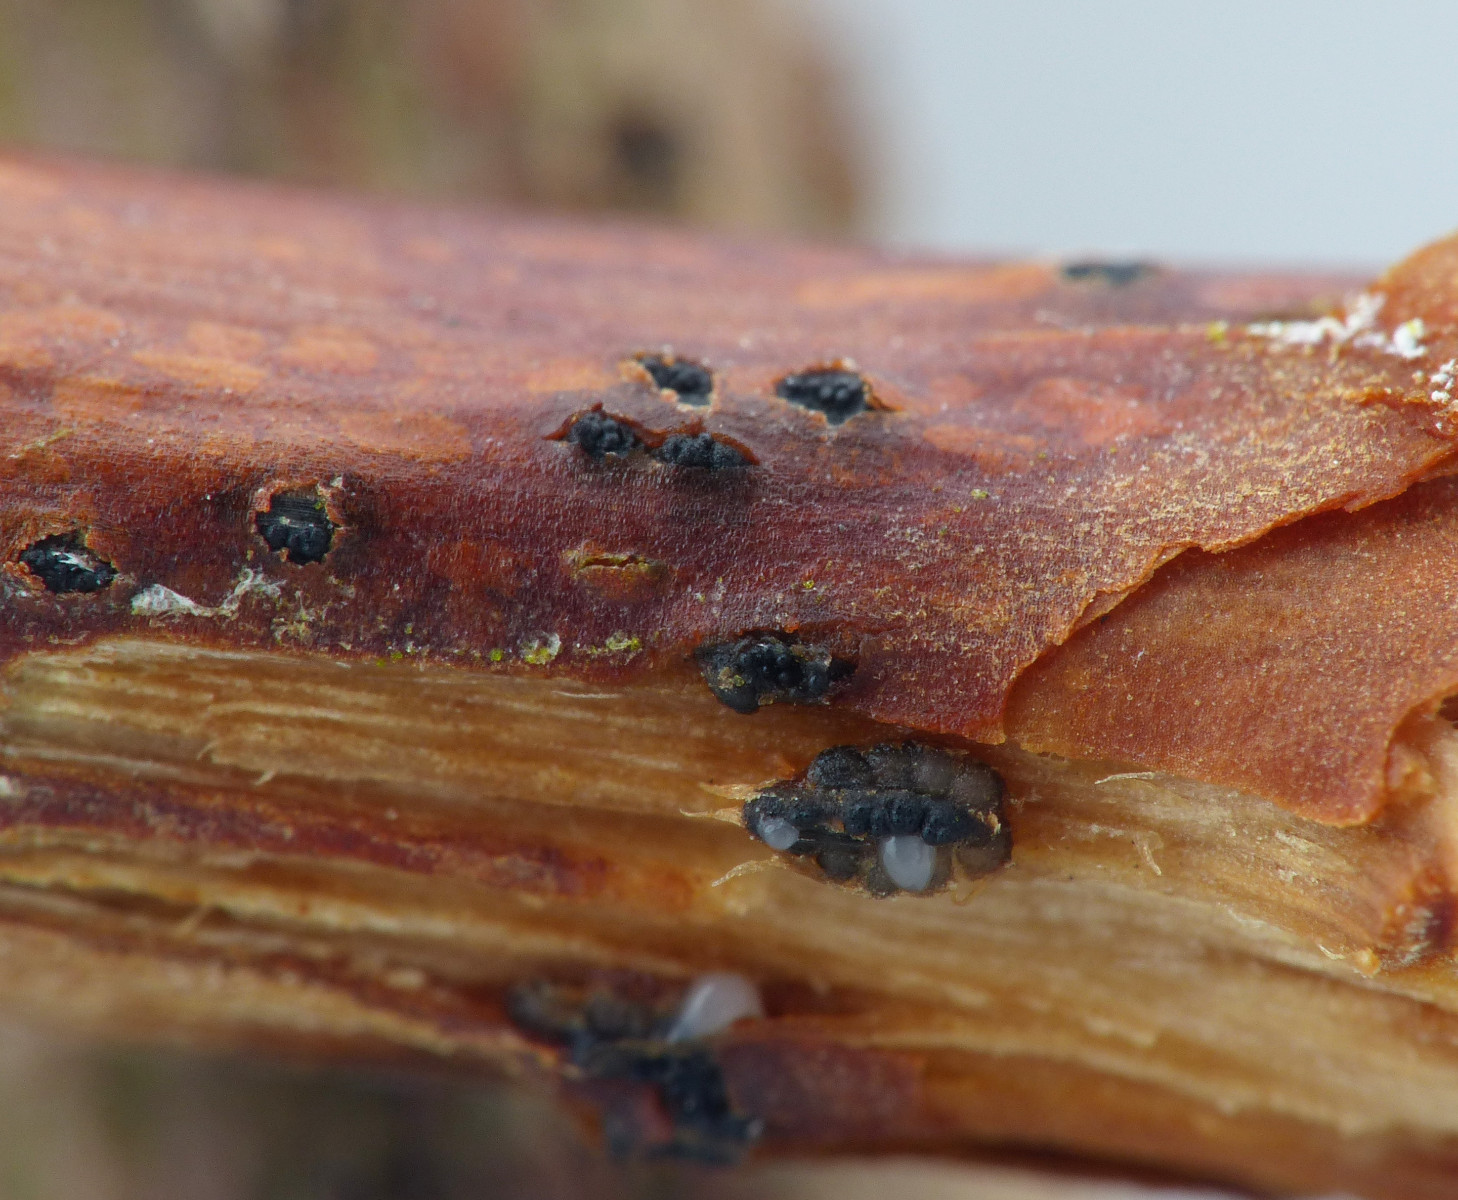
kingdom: Fungi
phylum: Ascomycota
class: Sordariomycetes
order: Diaporthales
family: Gnomoniaceae
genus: Anisogramma
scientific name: Anisogramma vepris
